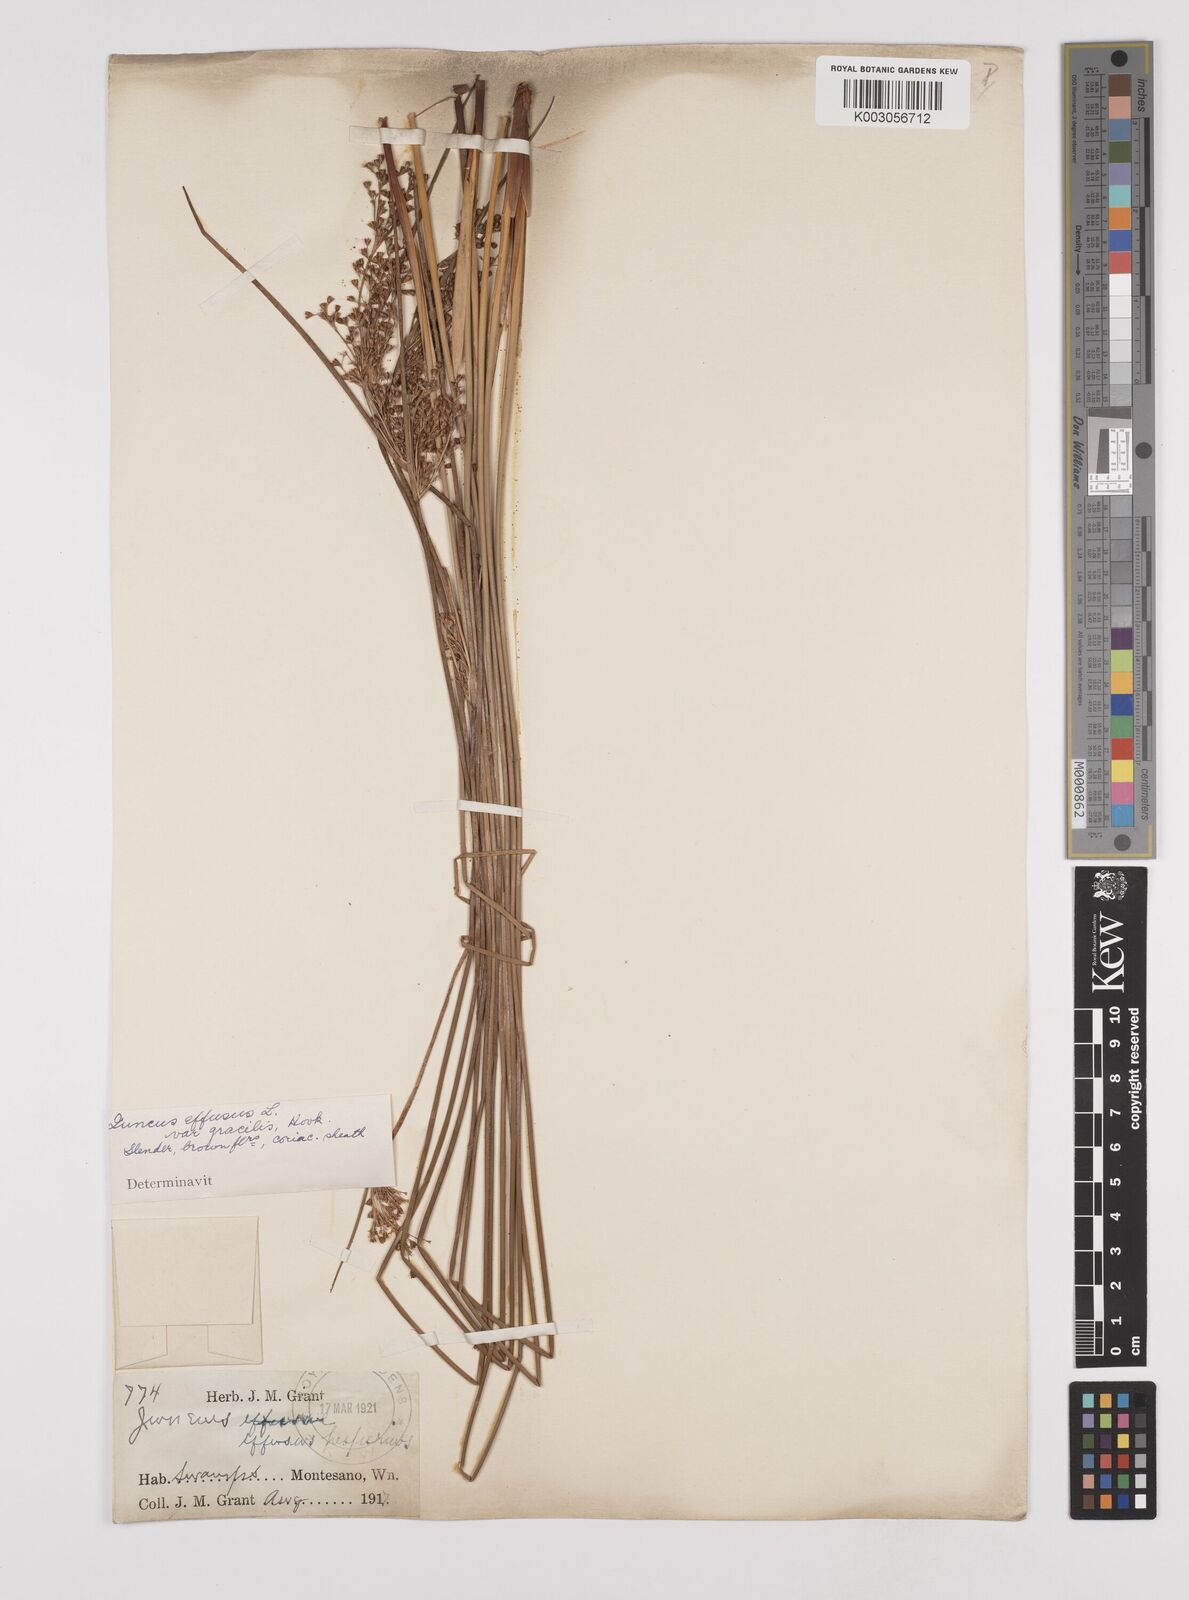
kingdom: Plantae
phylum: Tracheophyta
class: Liliopsida
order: Poales
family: Juncaceae
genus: Juncus
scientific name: Juncus laccatus
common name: Shiny rush
